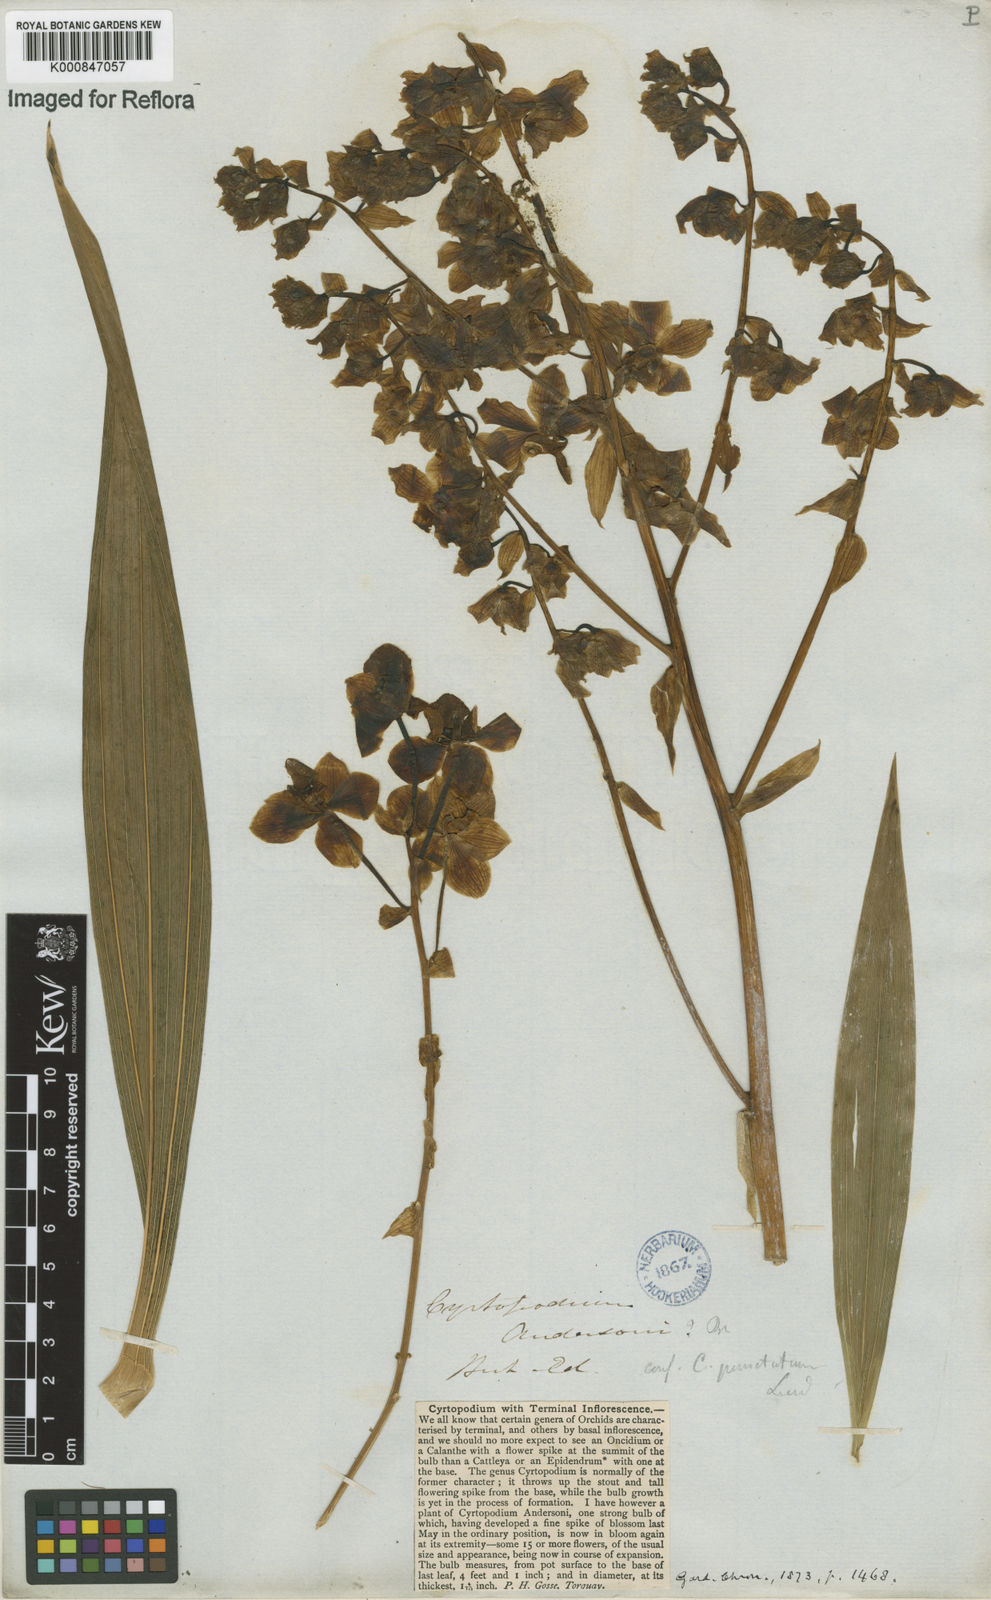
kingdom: Plantae
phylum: Tracheophyta
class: Liliopsida
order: Asparagales
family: Orchidaceae
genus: Cyrtopodium
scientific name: Cyrtopodium andersonii
